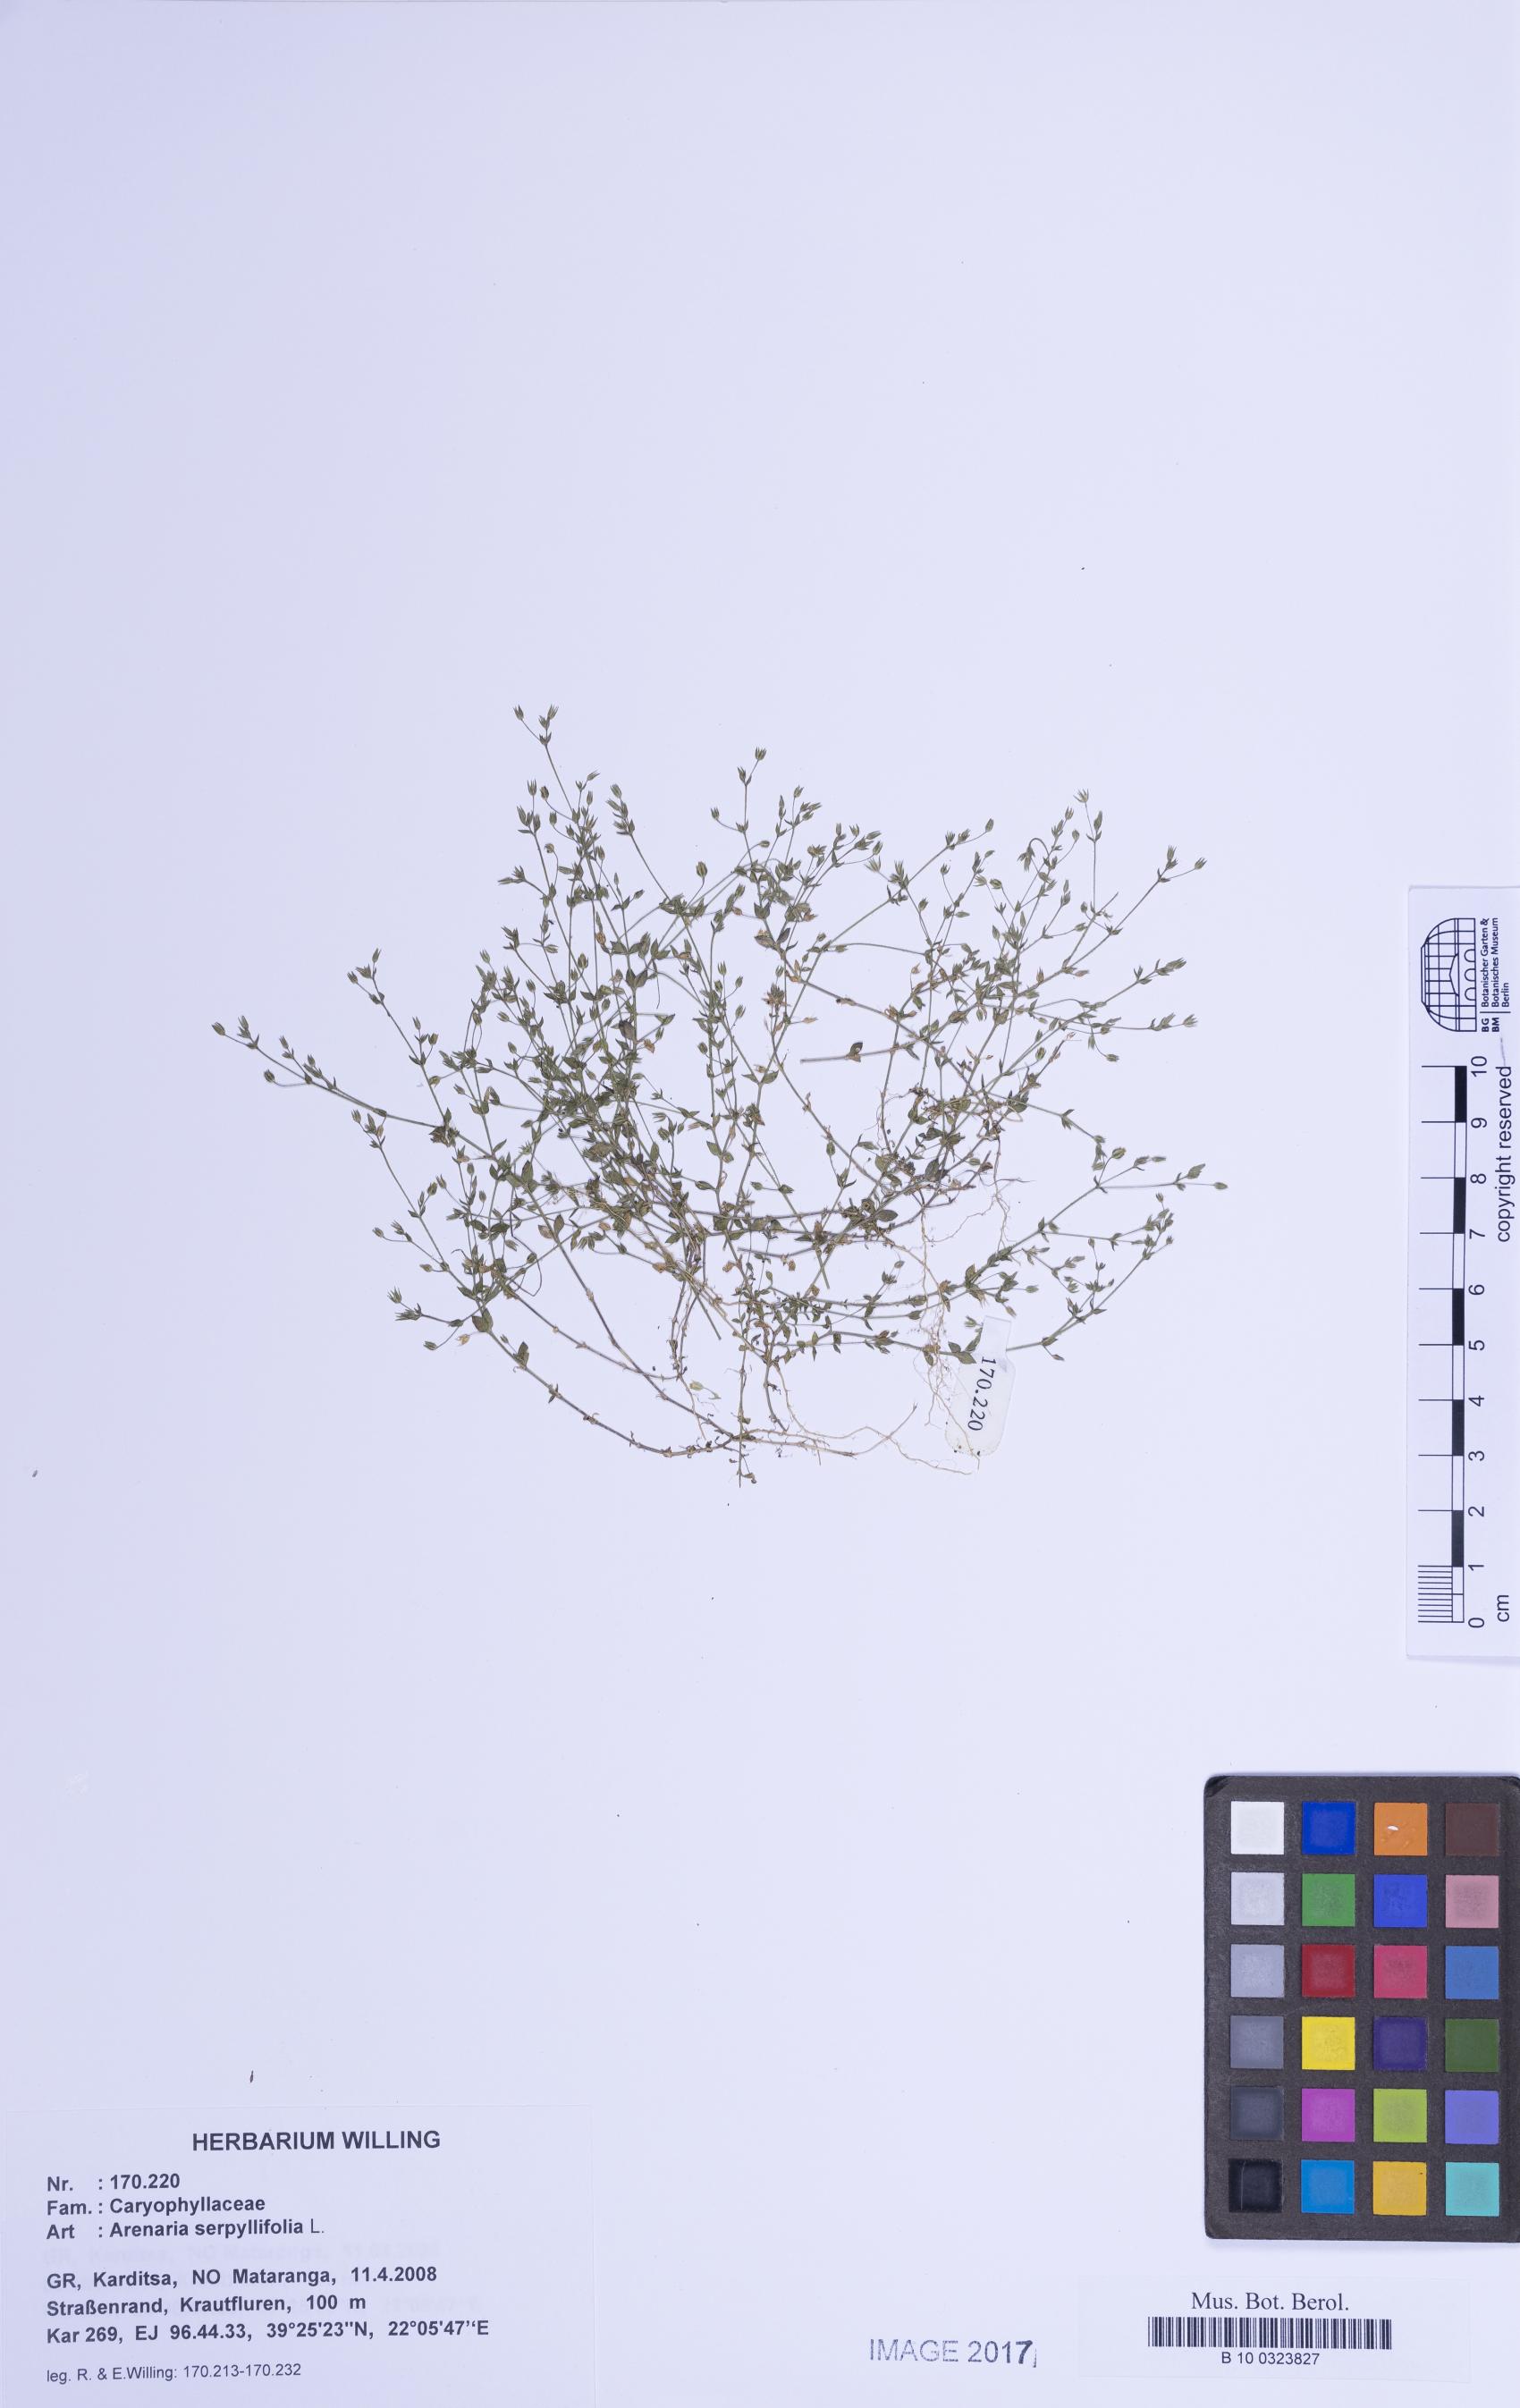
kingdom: Plantae
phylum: Tracheophyta
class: Magnoliopsida
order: Caryophyllales
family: Caryophyllaceae
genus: Arenaria
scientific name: Arenaria serpyllifolia
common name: Thyme-leaved sandwort
